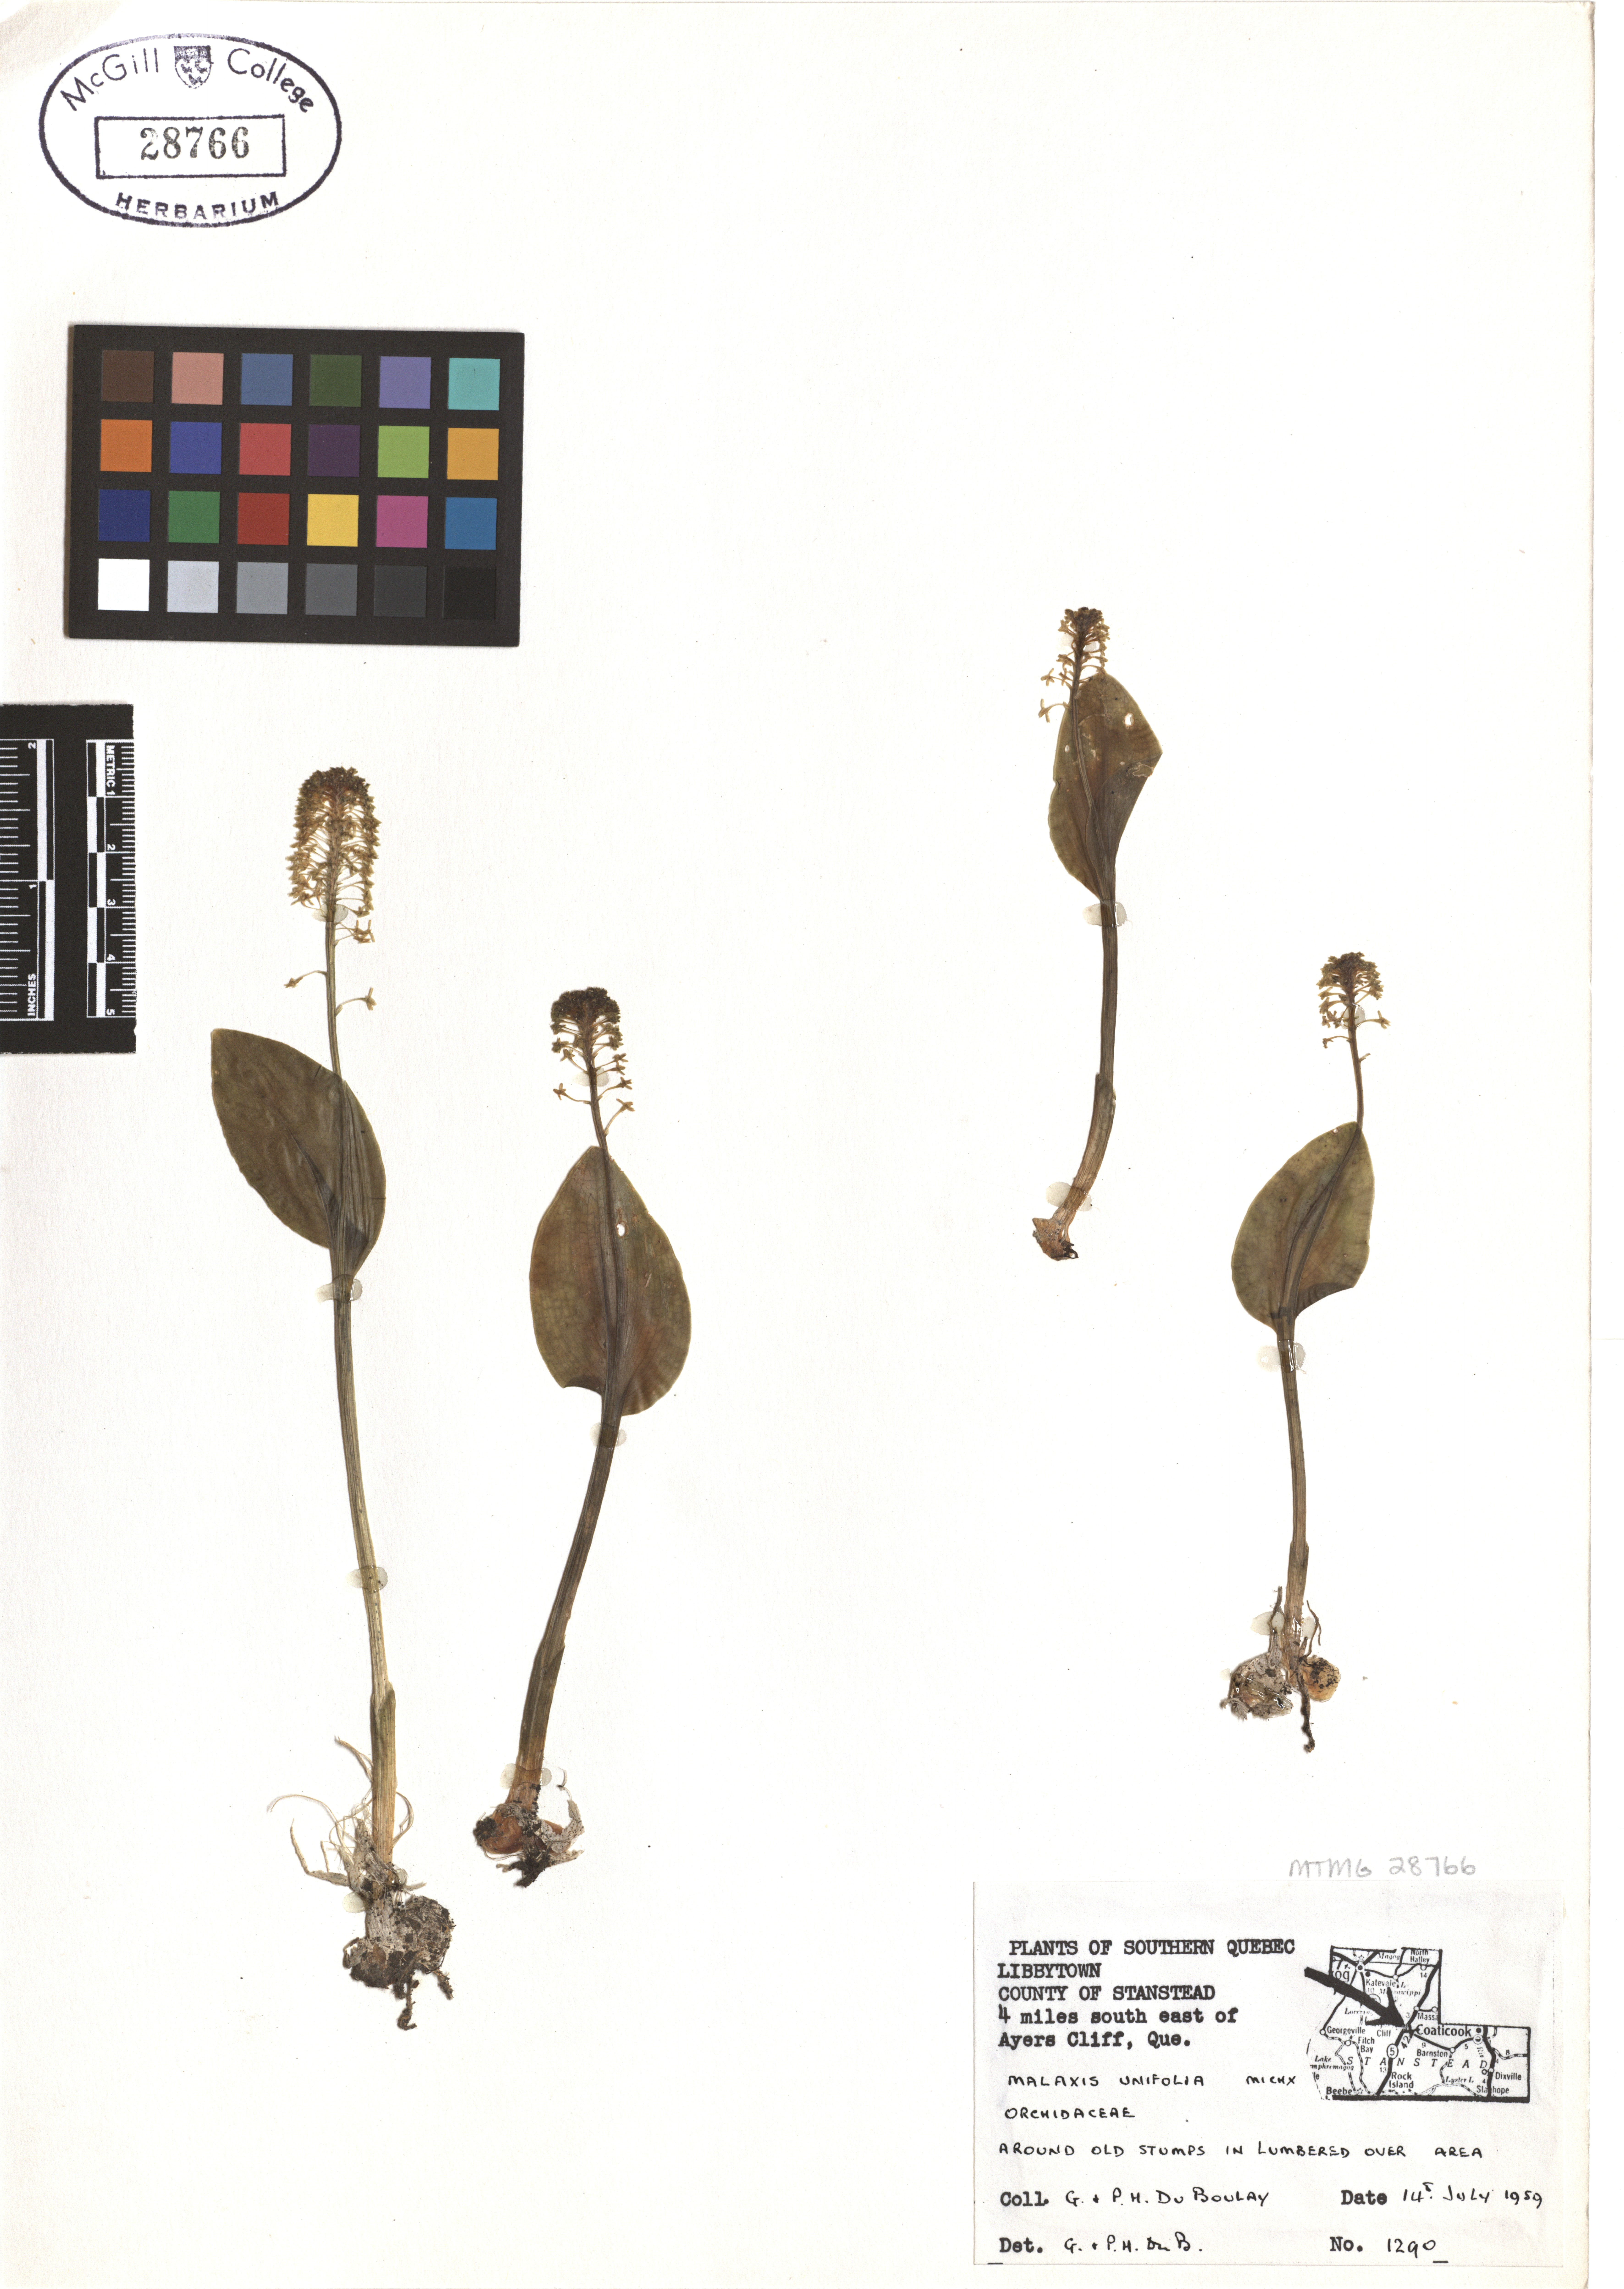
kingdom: Plantae
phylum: Tracheophyta
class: Liliopsida
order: Asparagales
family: Orchidaceae
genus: Malaxis
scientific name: Malaxis unifolia
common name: Green adder's-mouth
